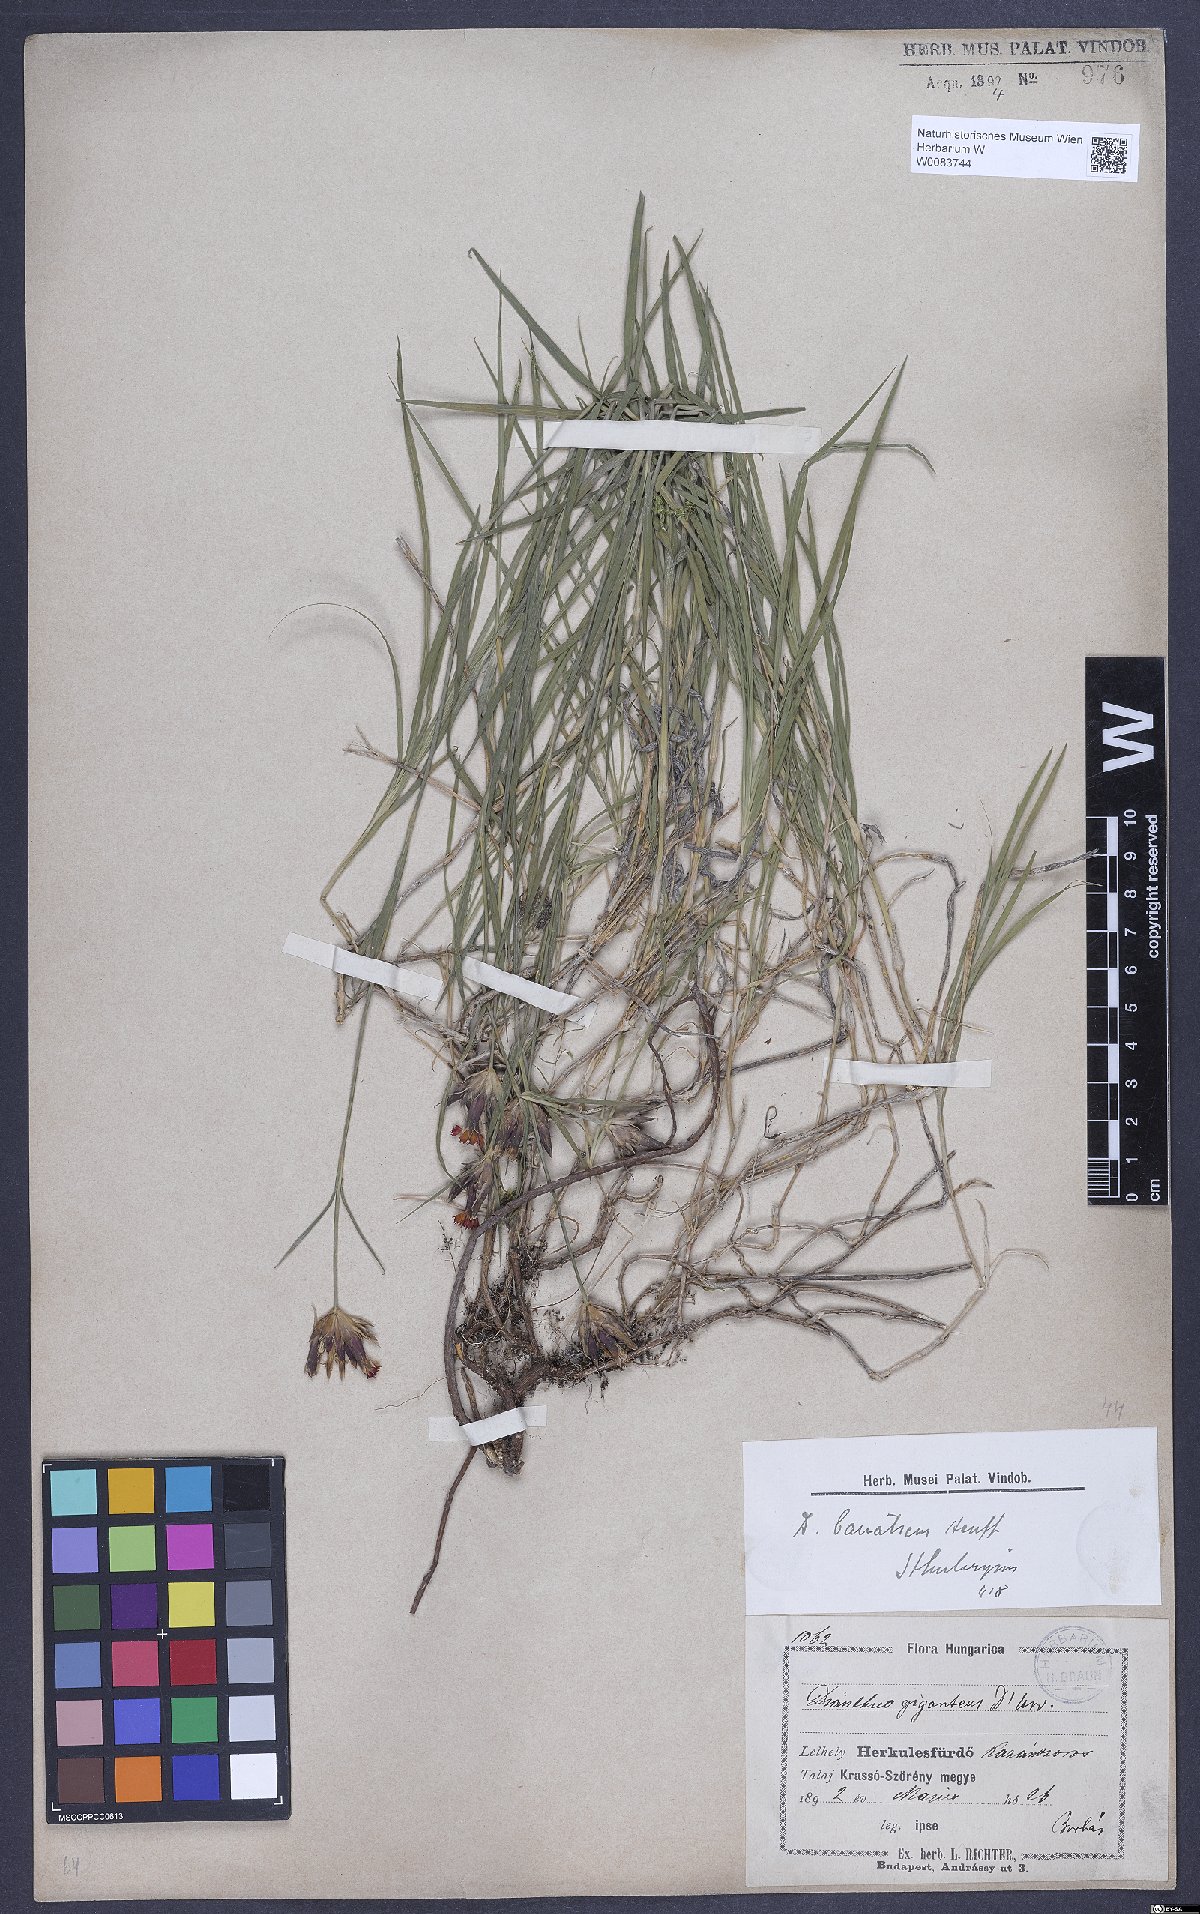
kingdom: Plantae
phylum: Tracheophyta
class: Magnoliopsida
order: Caryophyllales
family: Caryophyllaceae
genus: Dianthus
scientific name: Dianthus giganteus
